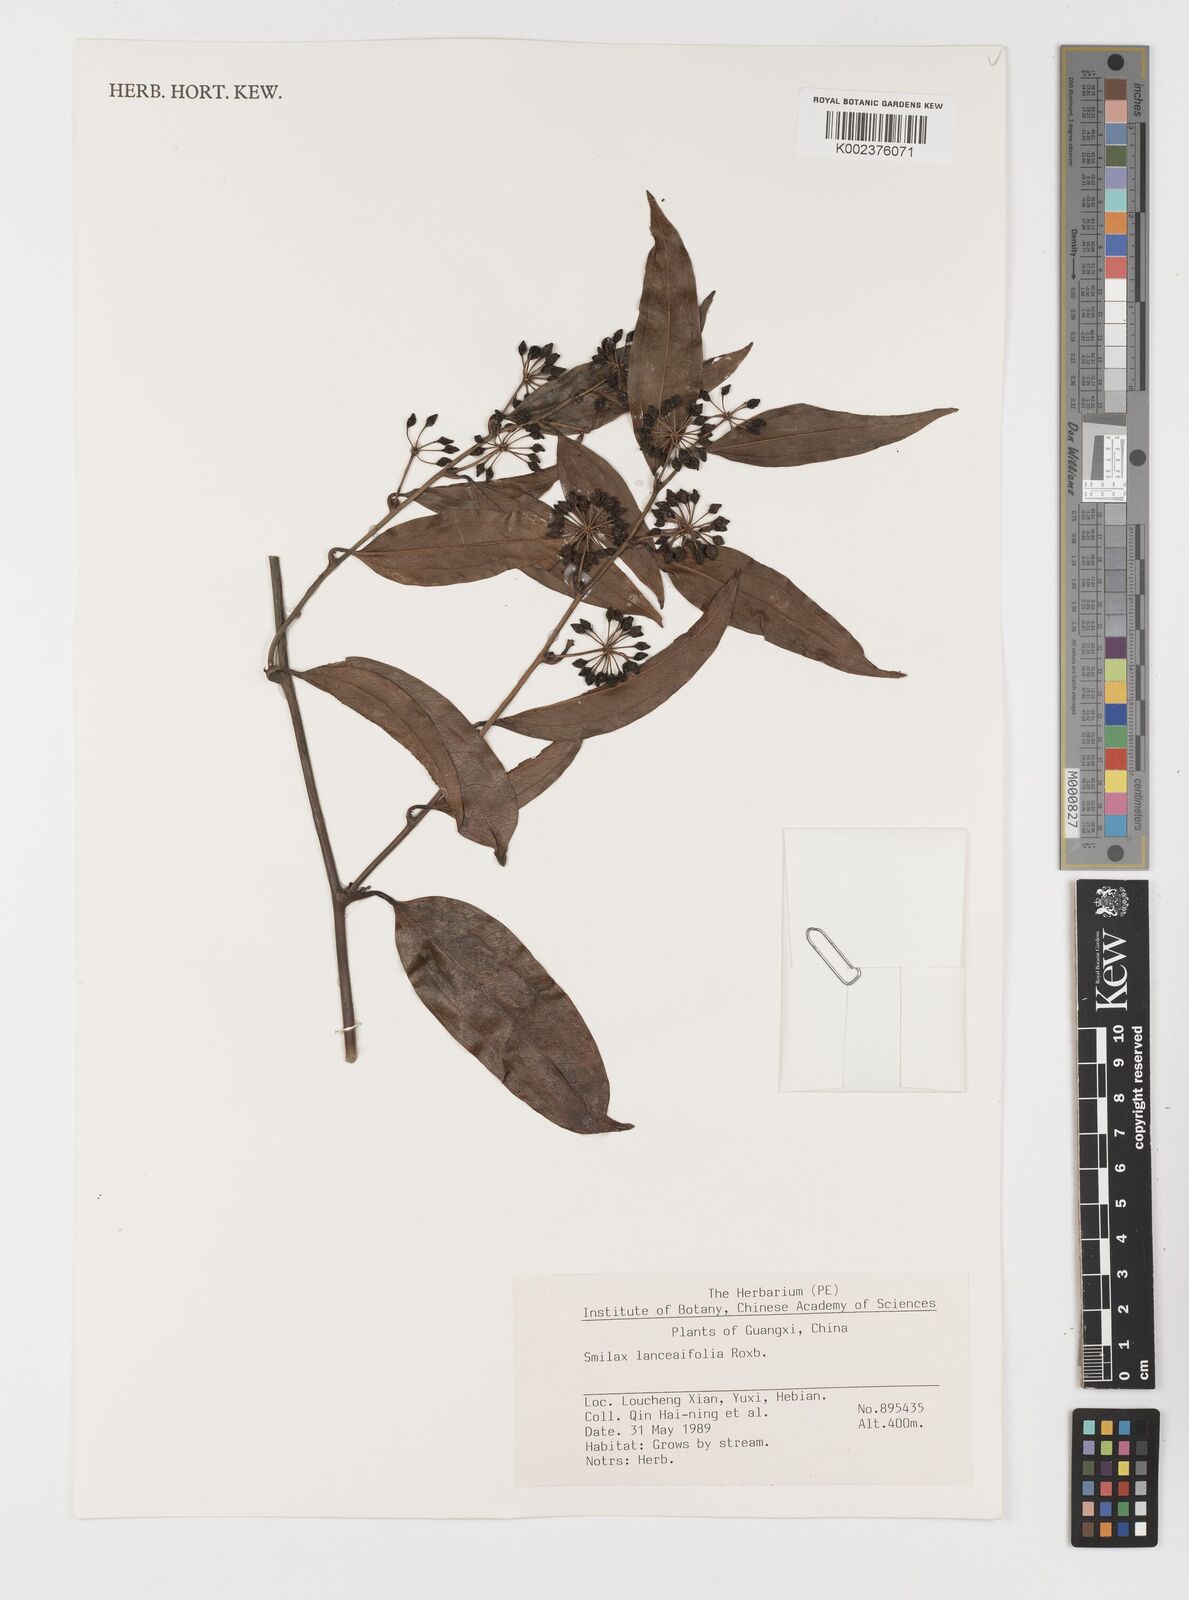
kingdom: Plantae
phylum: Tracheophyta
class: Liliopsida
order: Liliales
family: Smilacaceae
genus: Smilax
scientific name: Smilax lanceifolia
